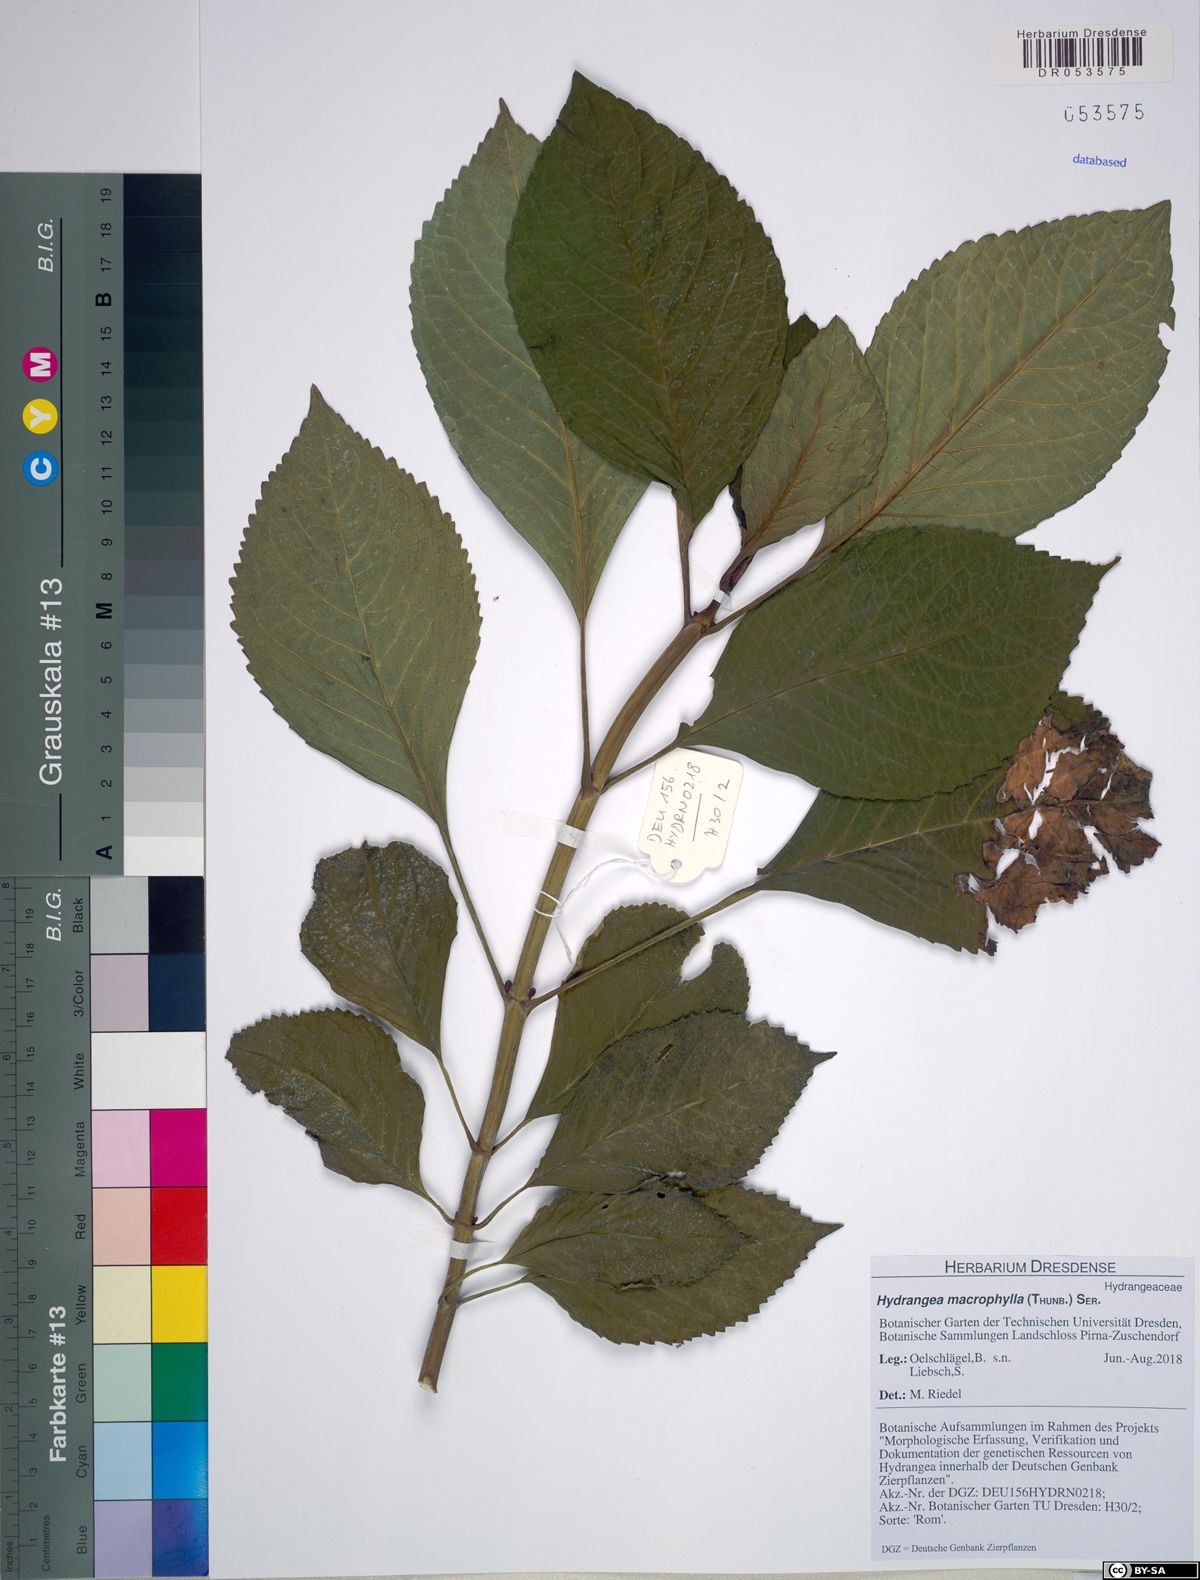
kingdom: Plantae
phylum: Tracheophyta
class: Magnoliopsida
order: Cornales
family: Hydrangeaceae
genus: Hydrangea
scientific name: Hydrangea macrophylla
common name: Hydrangea
